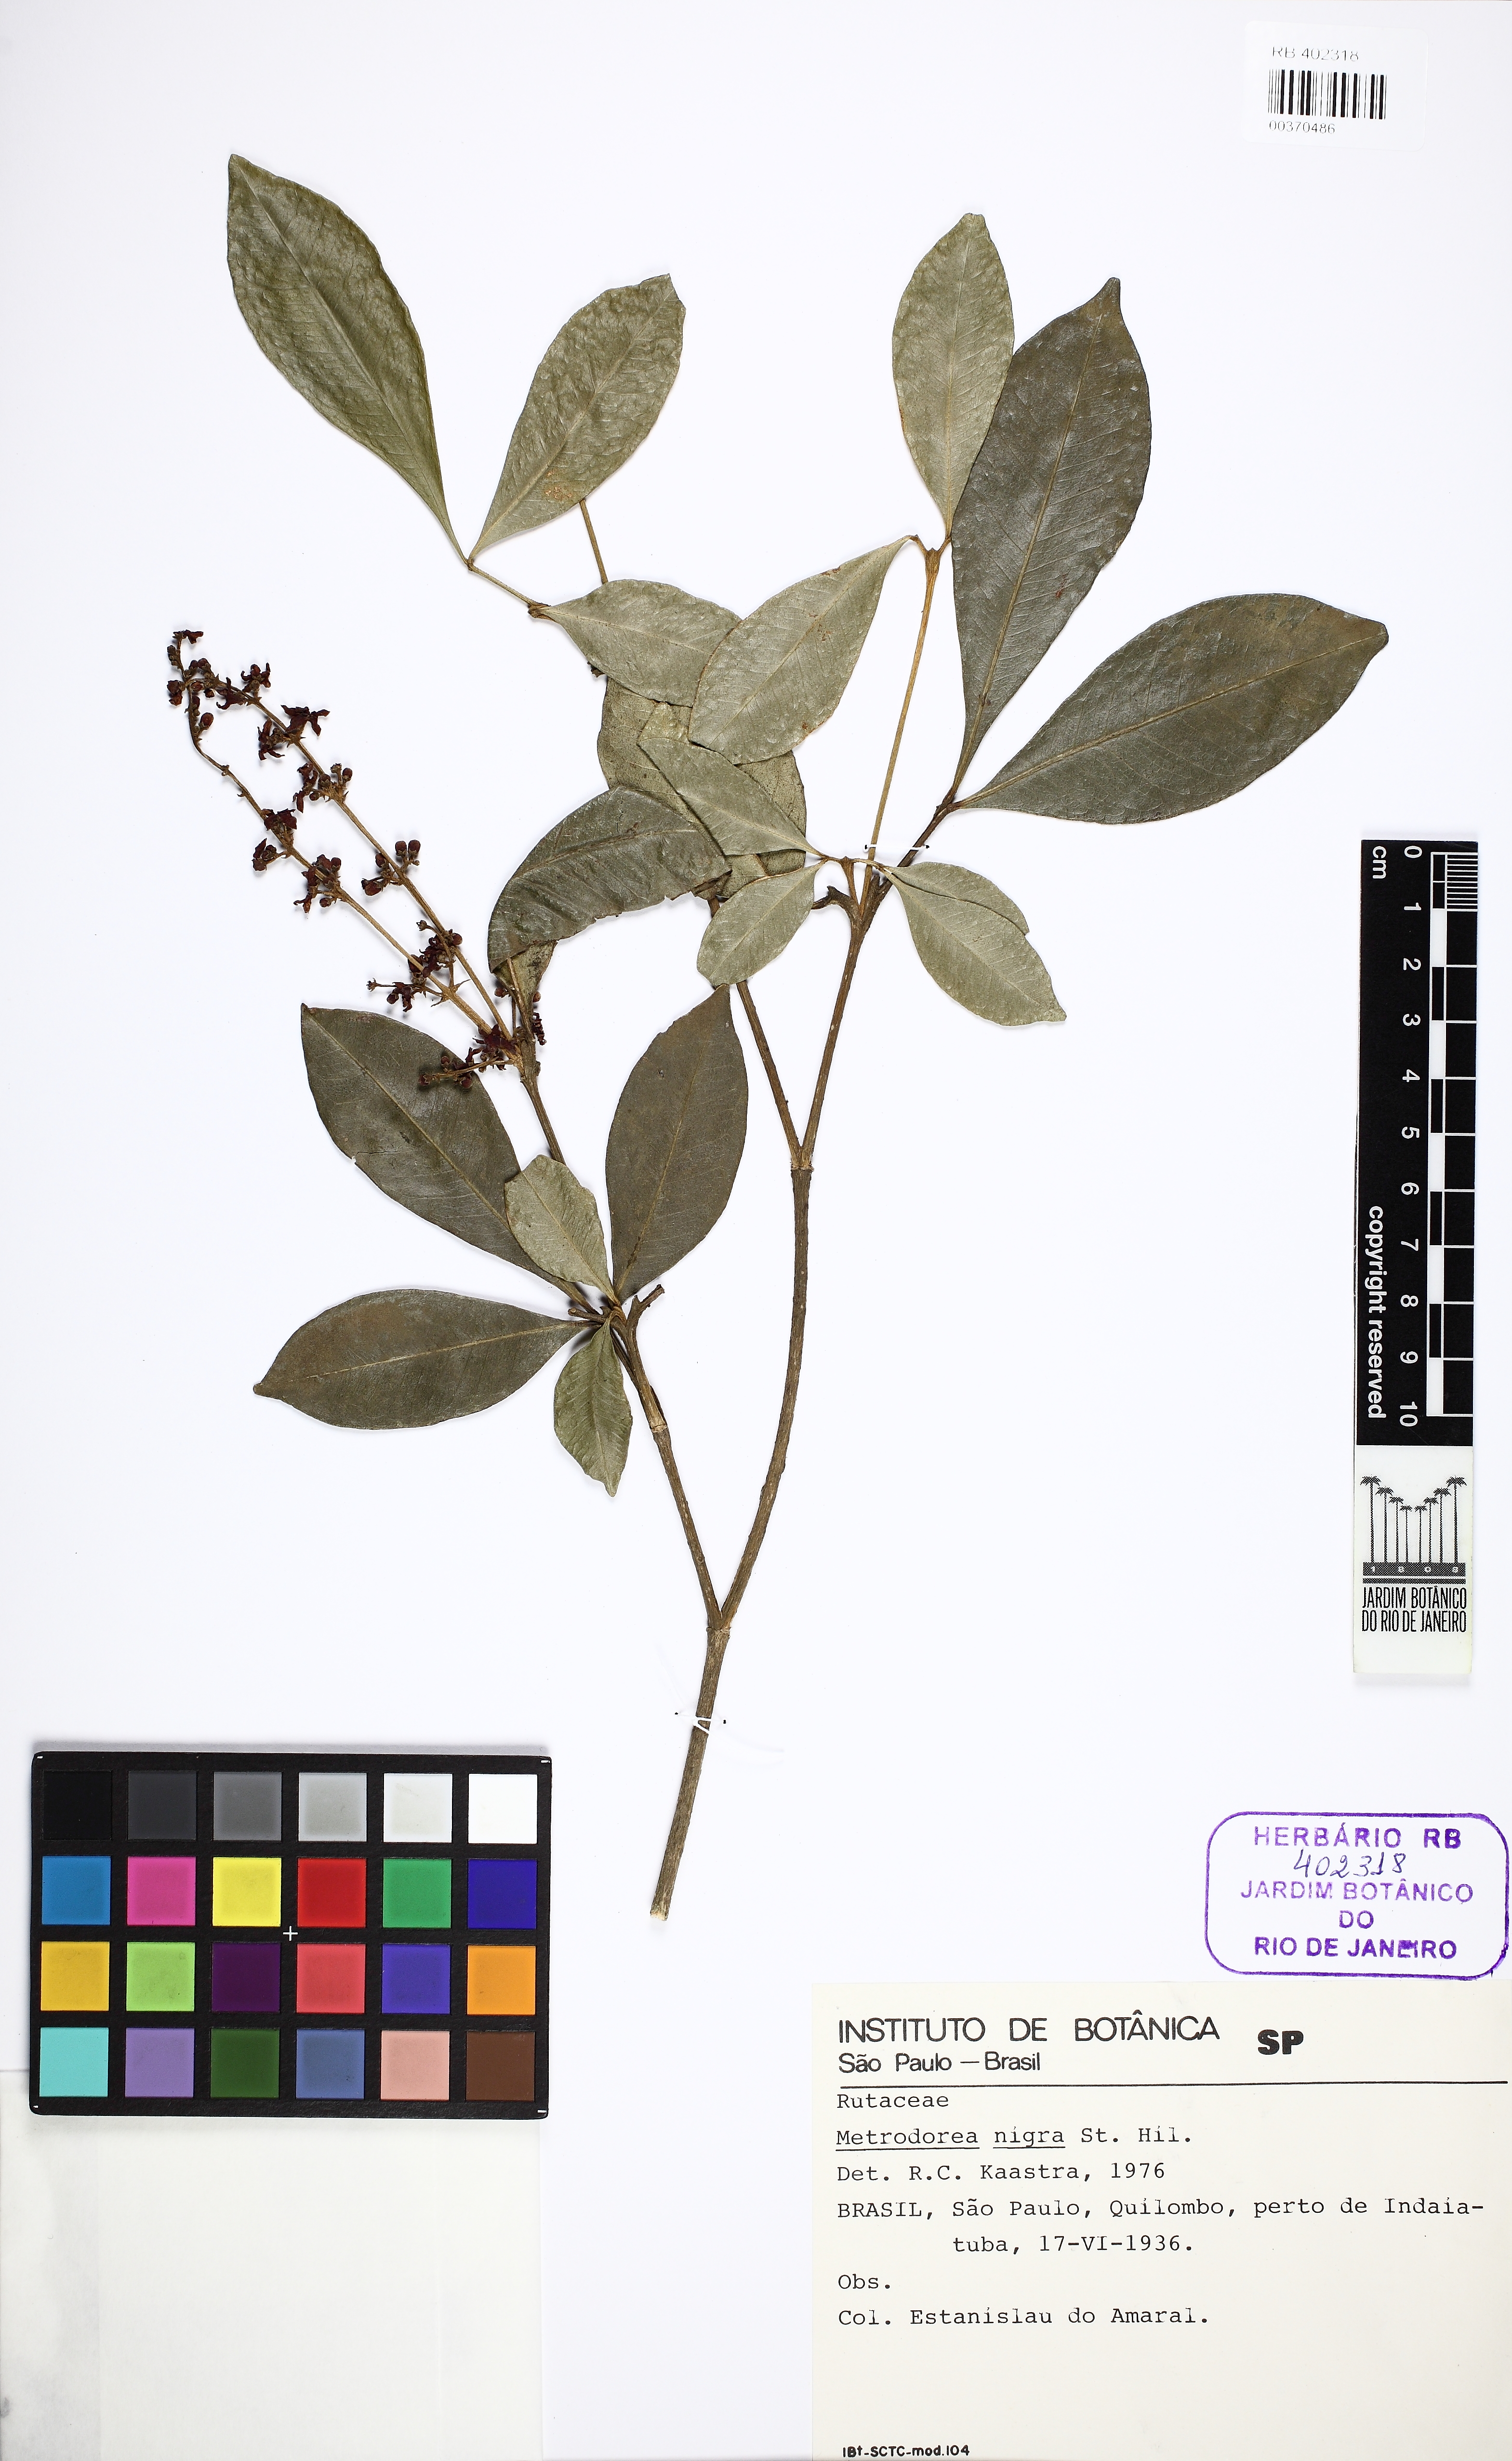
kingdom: Plantae
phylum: Tracheophyta
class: Magnoliopsida
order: Sapindales
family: Rutaceae
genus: Metrodorea
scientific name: Metrodorea nigra
